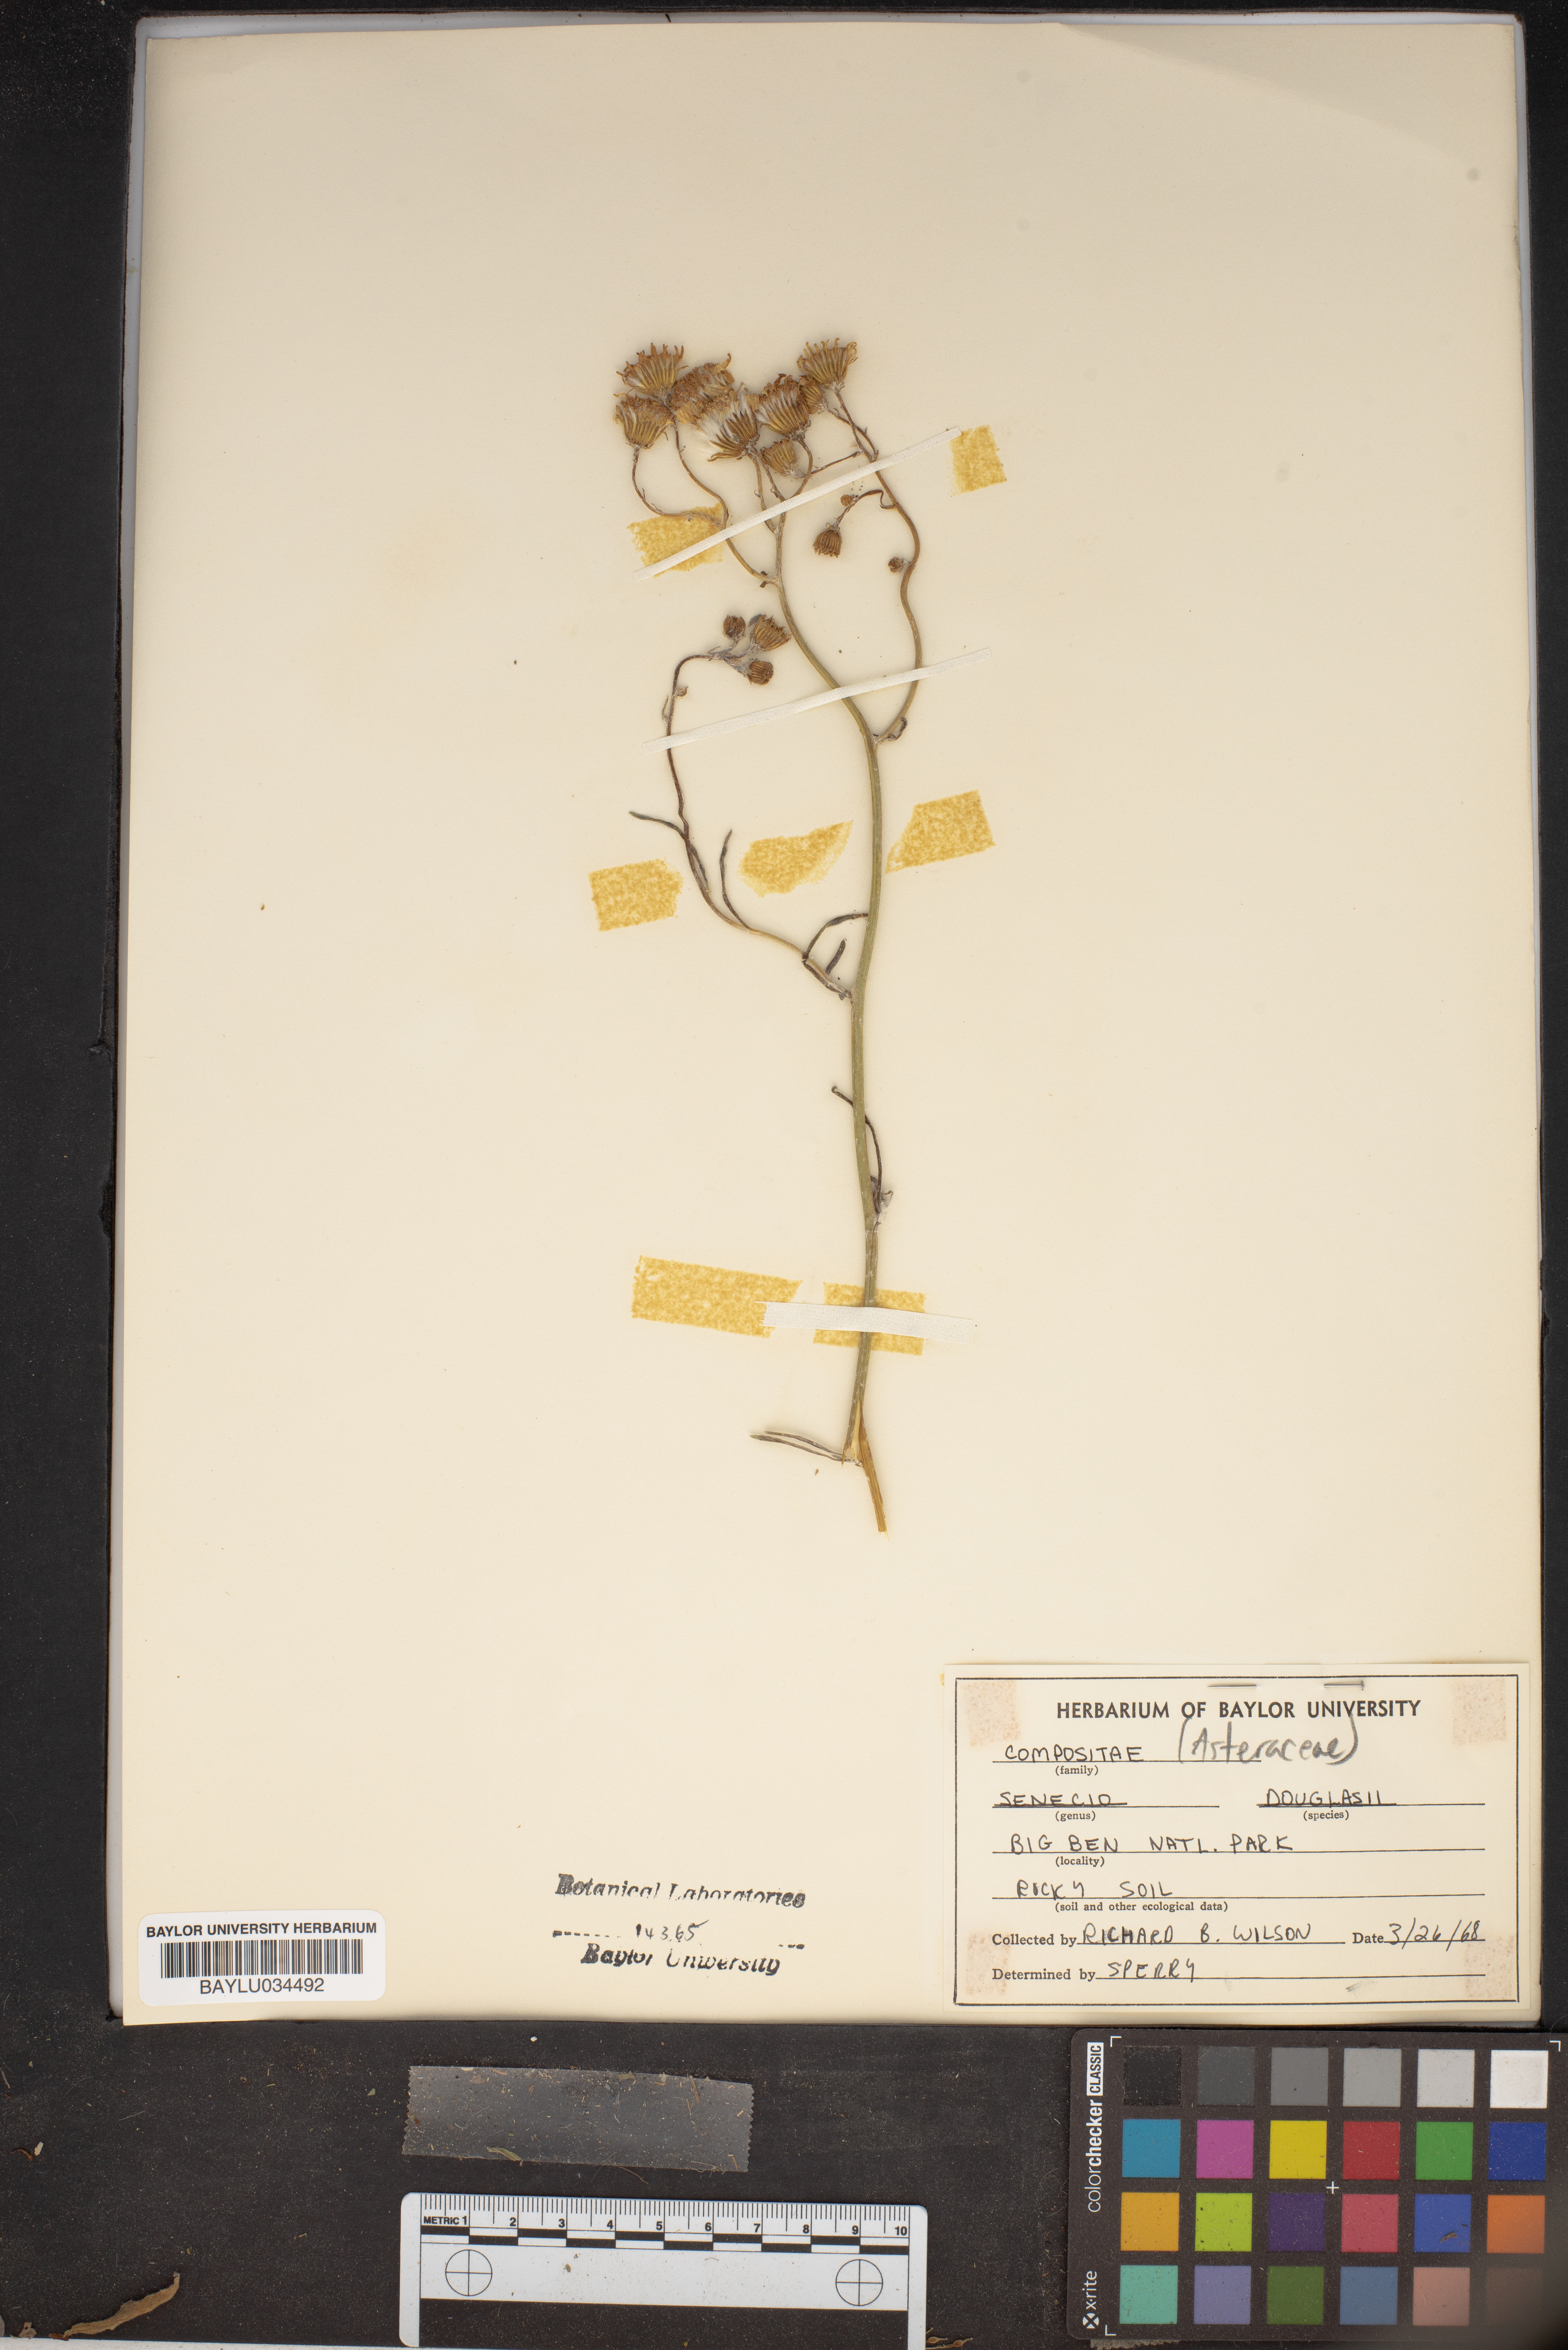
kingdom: Plantae
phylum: Tracheophyta
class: Magnoliopsida
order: Asterales
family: Asteraceae
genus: Senecio
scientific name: Senecio flaccidus
